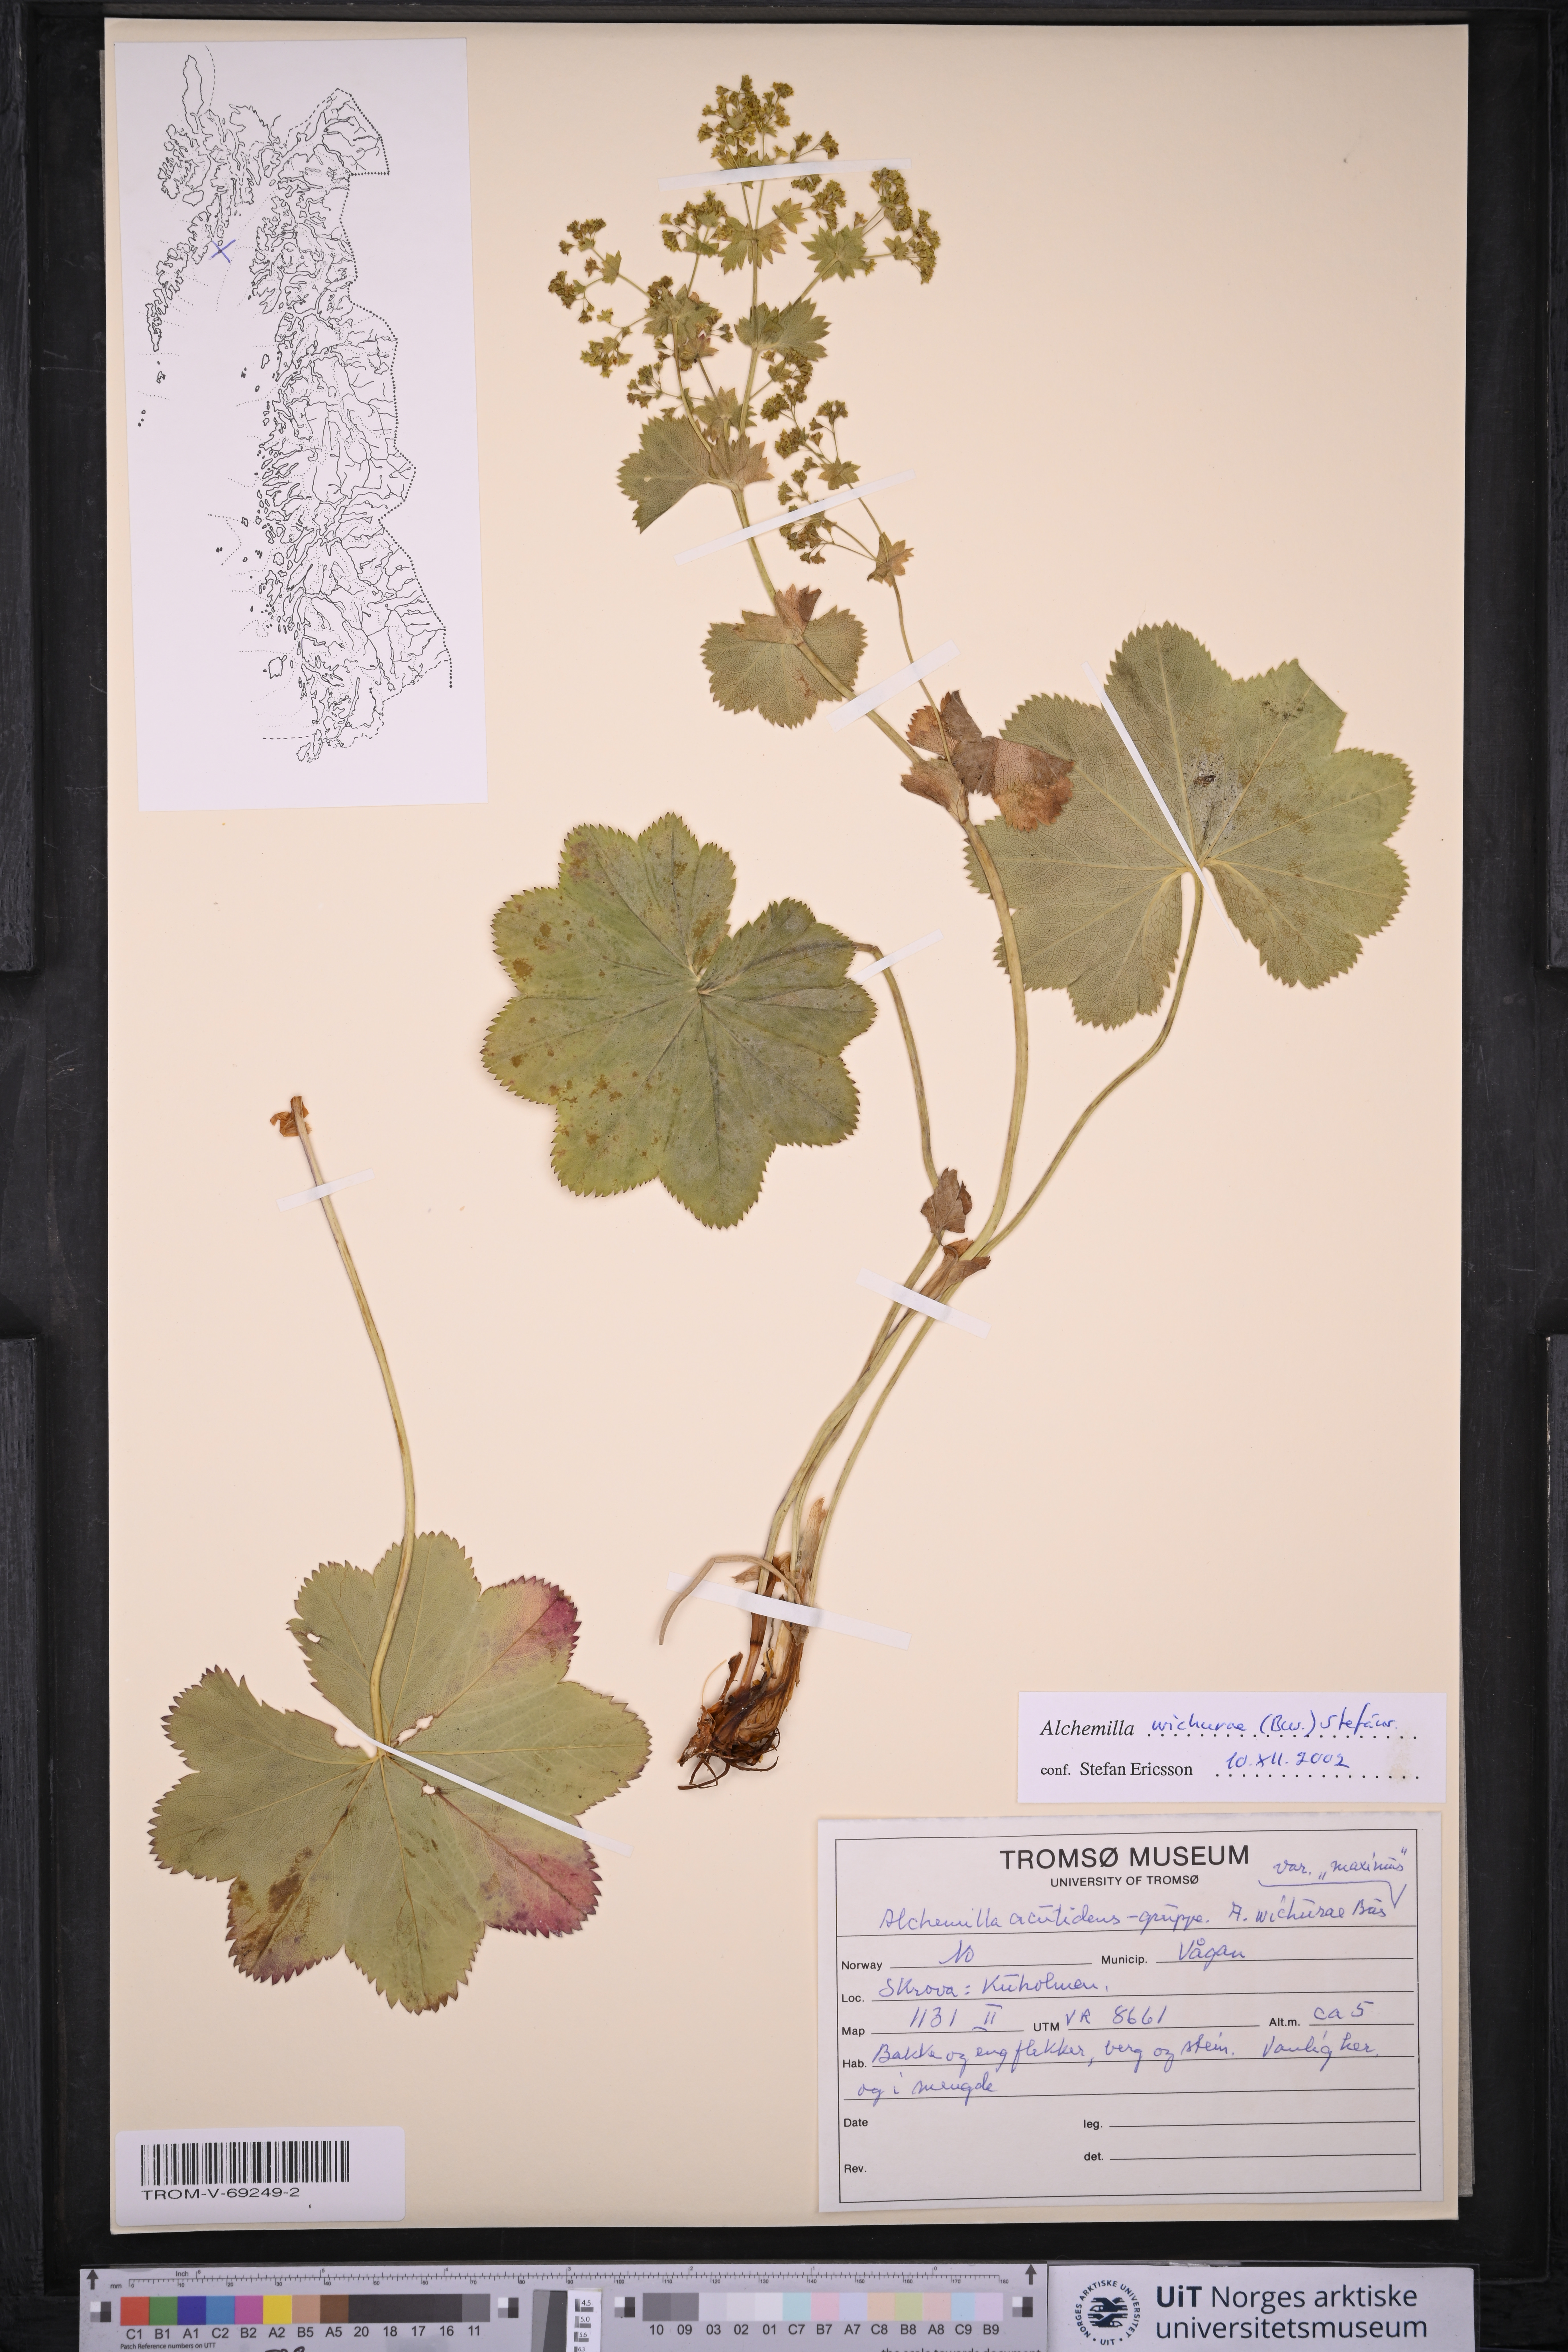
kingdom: Plantae
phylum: Tracheophyta
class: Magnoliopsida
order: Rosales
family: Rosaceae
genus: Alchemilla
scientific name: Alchemilla wichurae
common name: Rock lady's mantle
